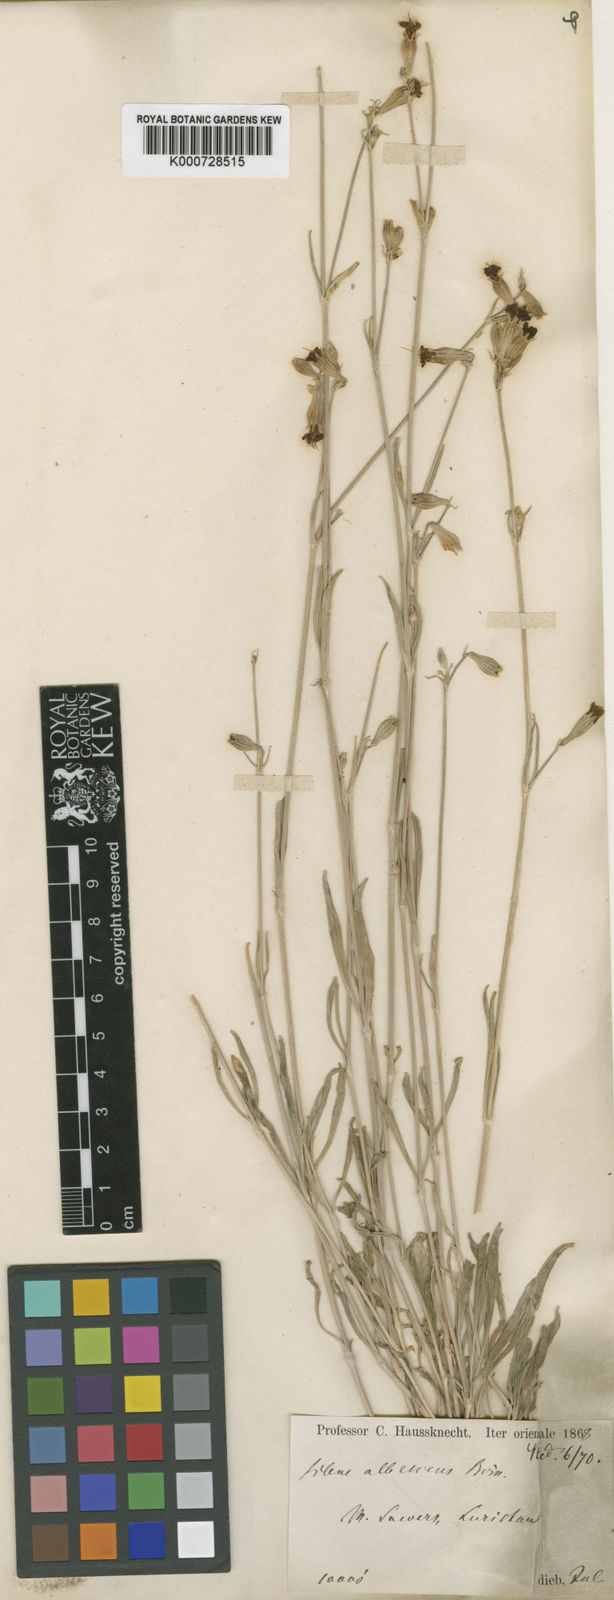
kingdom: Plantae
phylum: Tracheophyta
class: Magnoliopsida
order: Caryophyllales
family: Caryophyllaceae
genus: Silene
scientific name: Silene albescens
